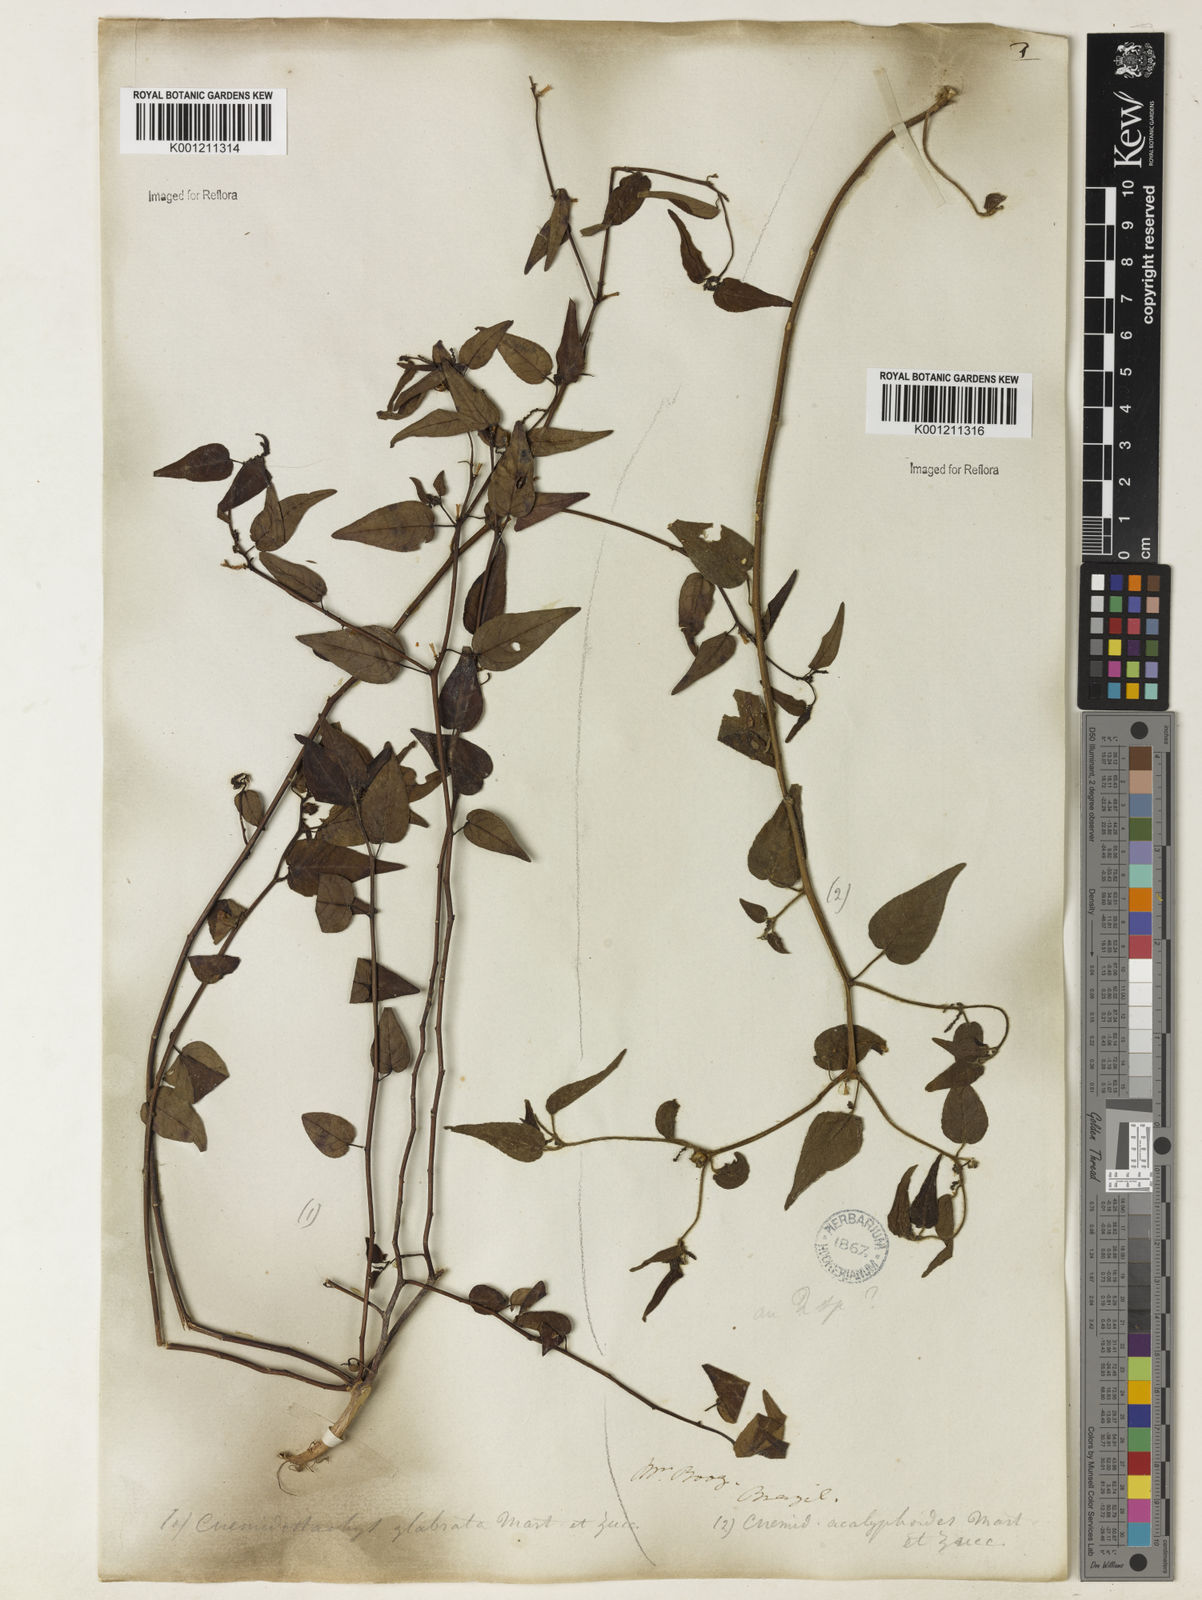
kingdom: Plantae
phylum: Tracheophyta
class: Magnoliopsida
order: Malpighiales
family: Euphorbiaceae
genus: Microstachys
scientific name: Microstachys corniculata
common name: Hato tejas
